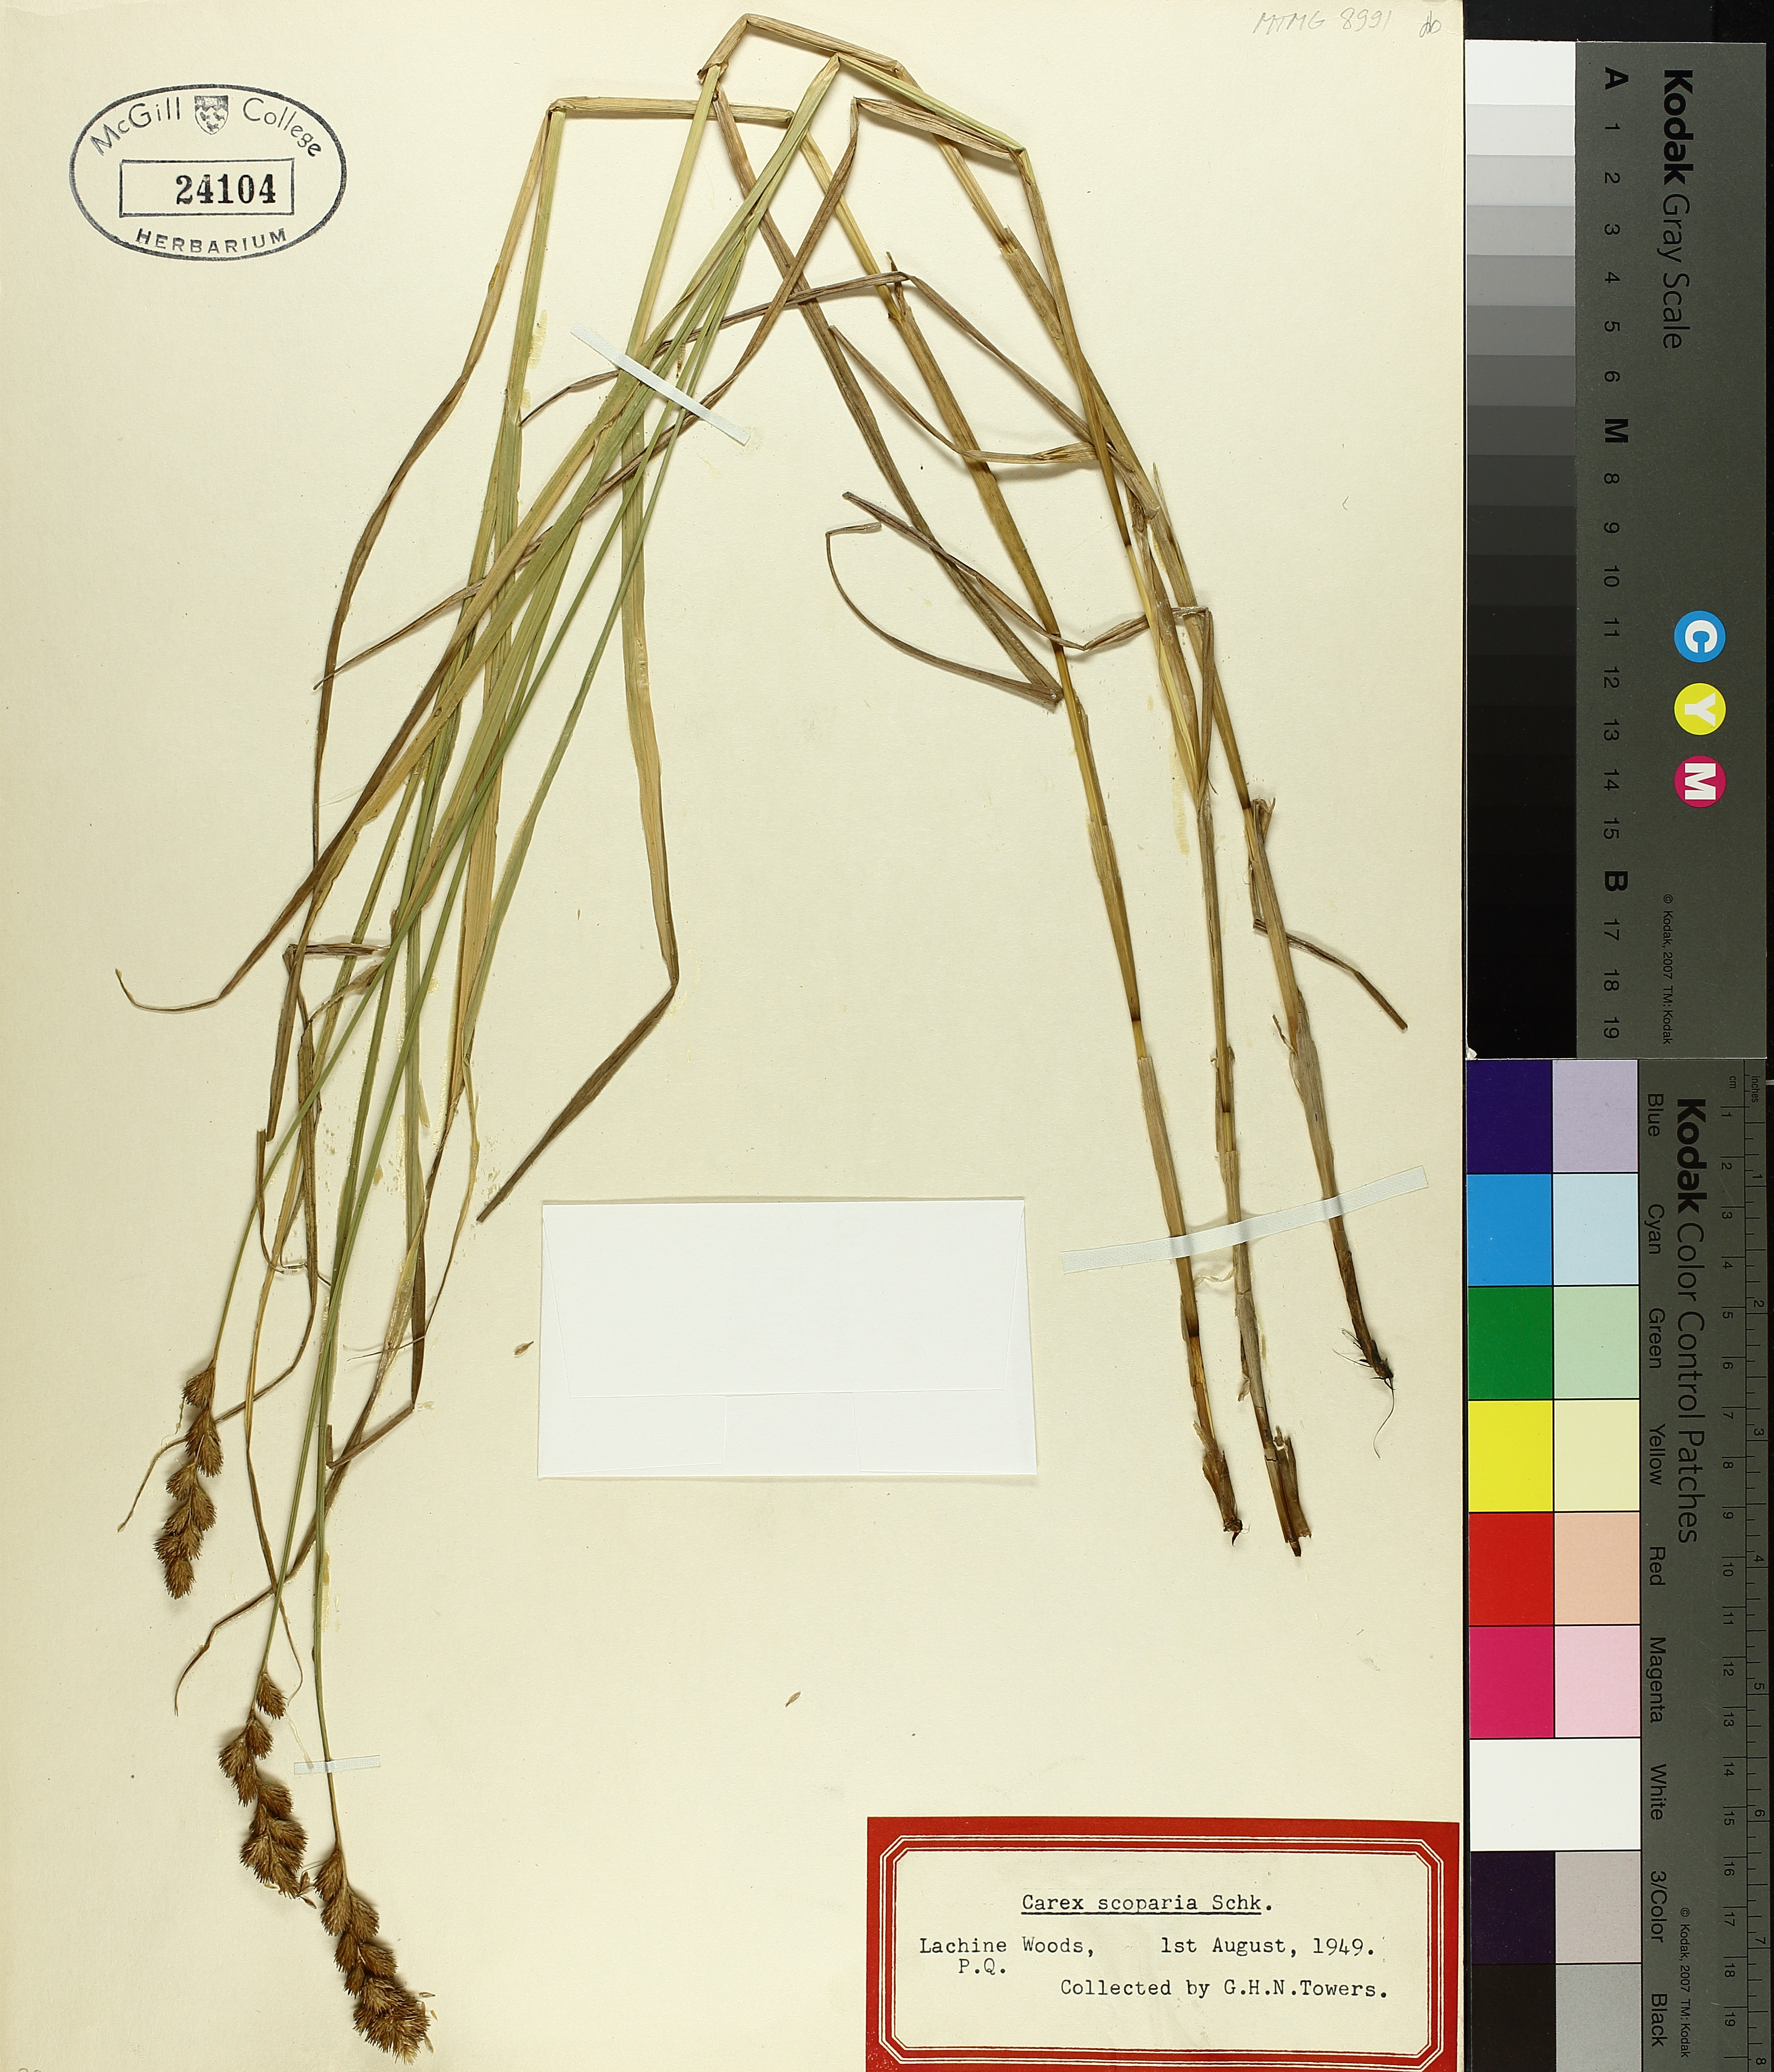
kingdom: Plantae
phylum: Tracheophyta
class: Liliopsida
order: Poales
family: Cyperaceae
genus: Carex
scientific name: Carex scoparia
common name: Broom sedge
